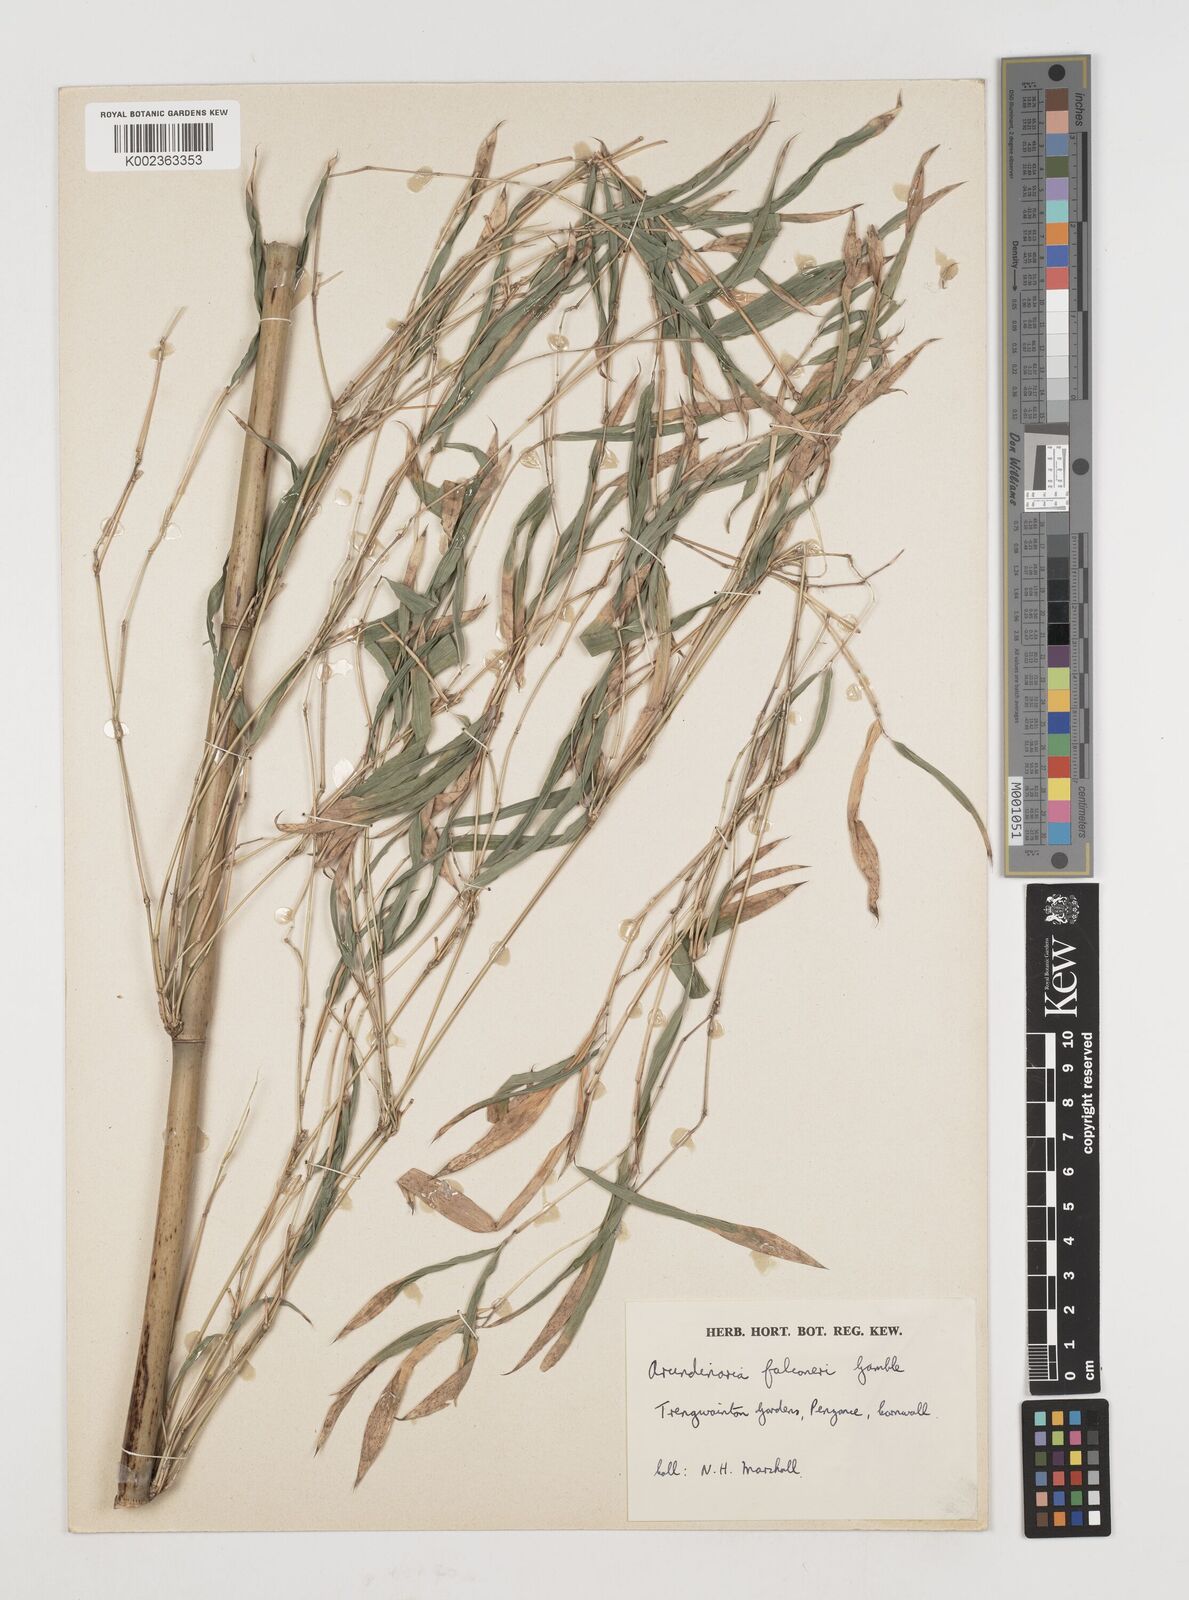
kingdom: Plantae
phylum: Tracheophyta
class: Liliopsida
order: Poales
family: Poaceae
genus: Himalayacalamus
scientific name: Himalayacalamus falconeri
